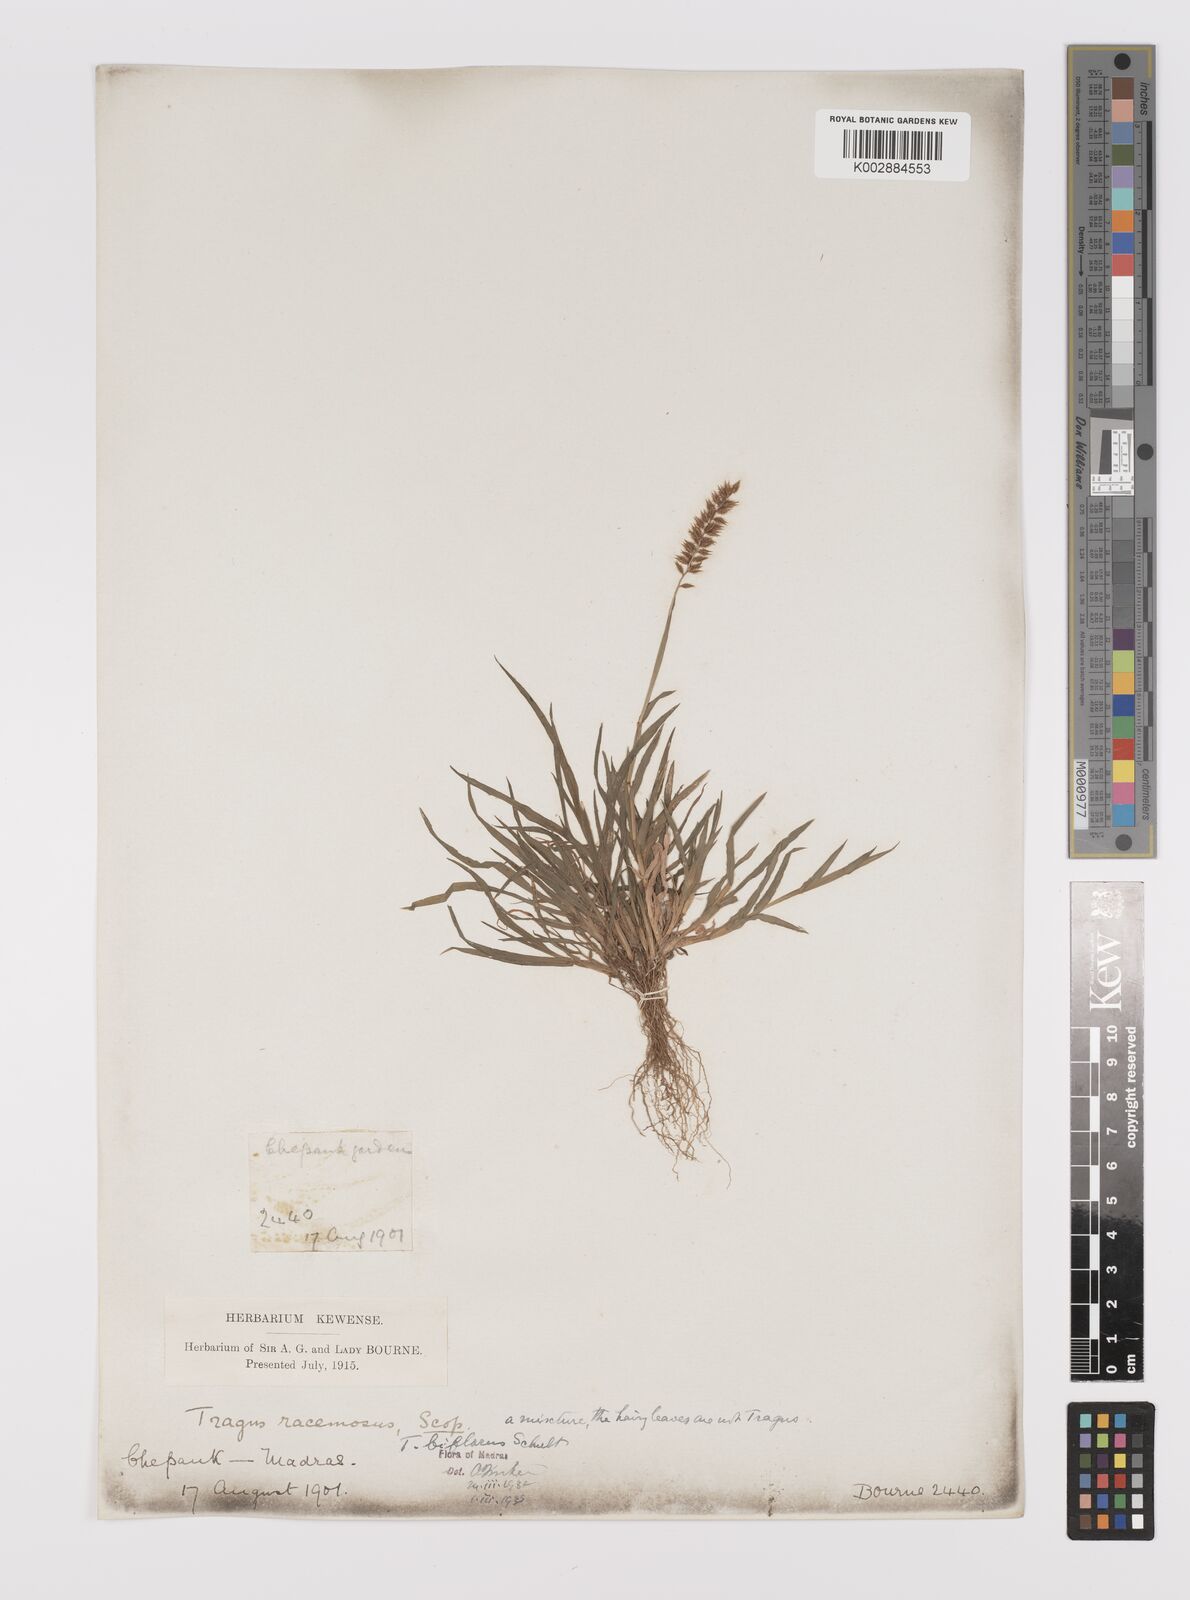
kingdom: Plantae
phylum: Tracheophyta
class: Liliopsida
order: Poales
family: Poaceae
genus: Tragus
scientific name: Tragus mongolorum
